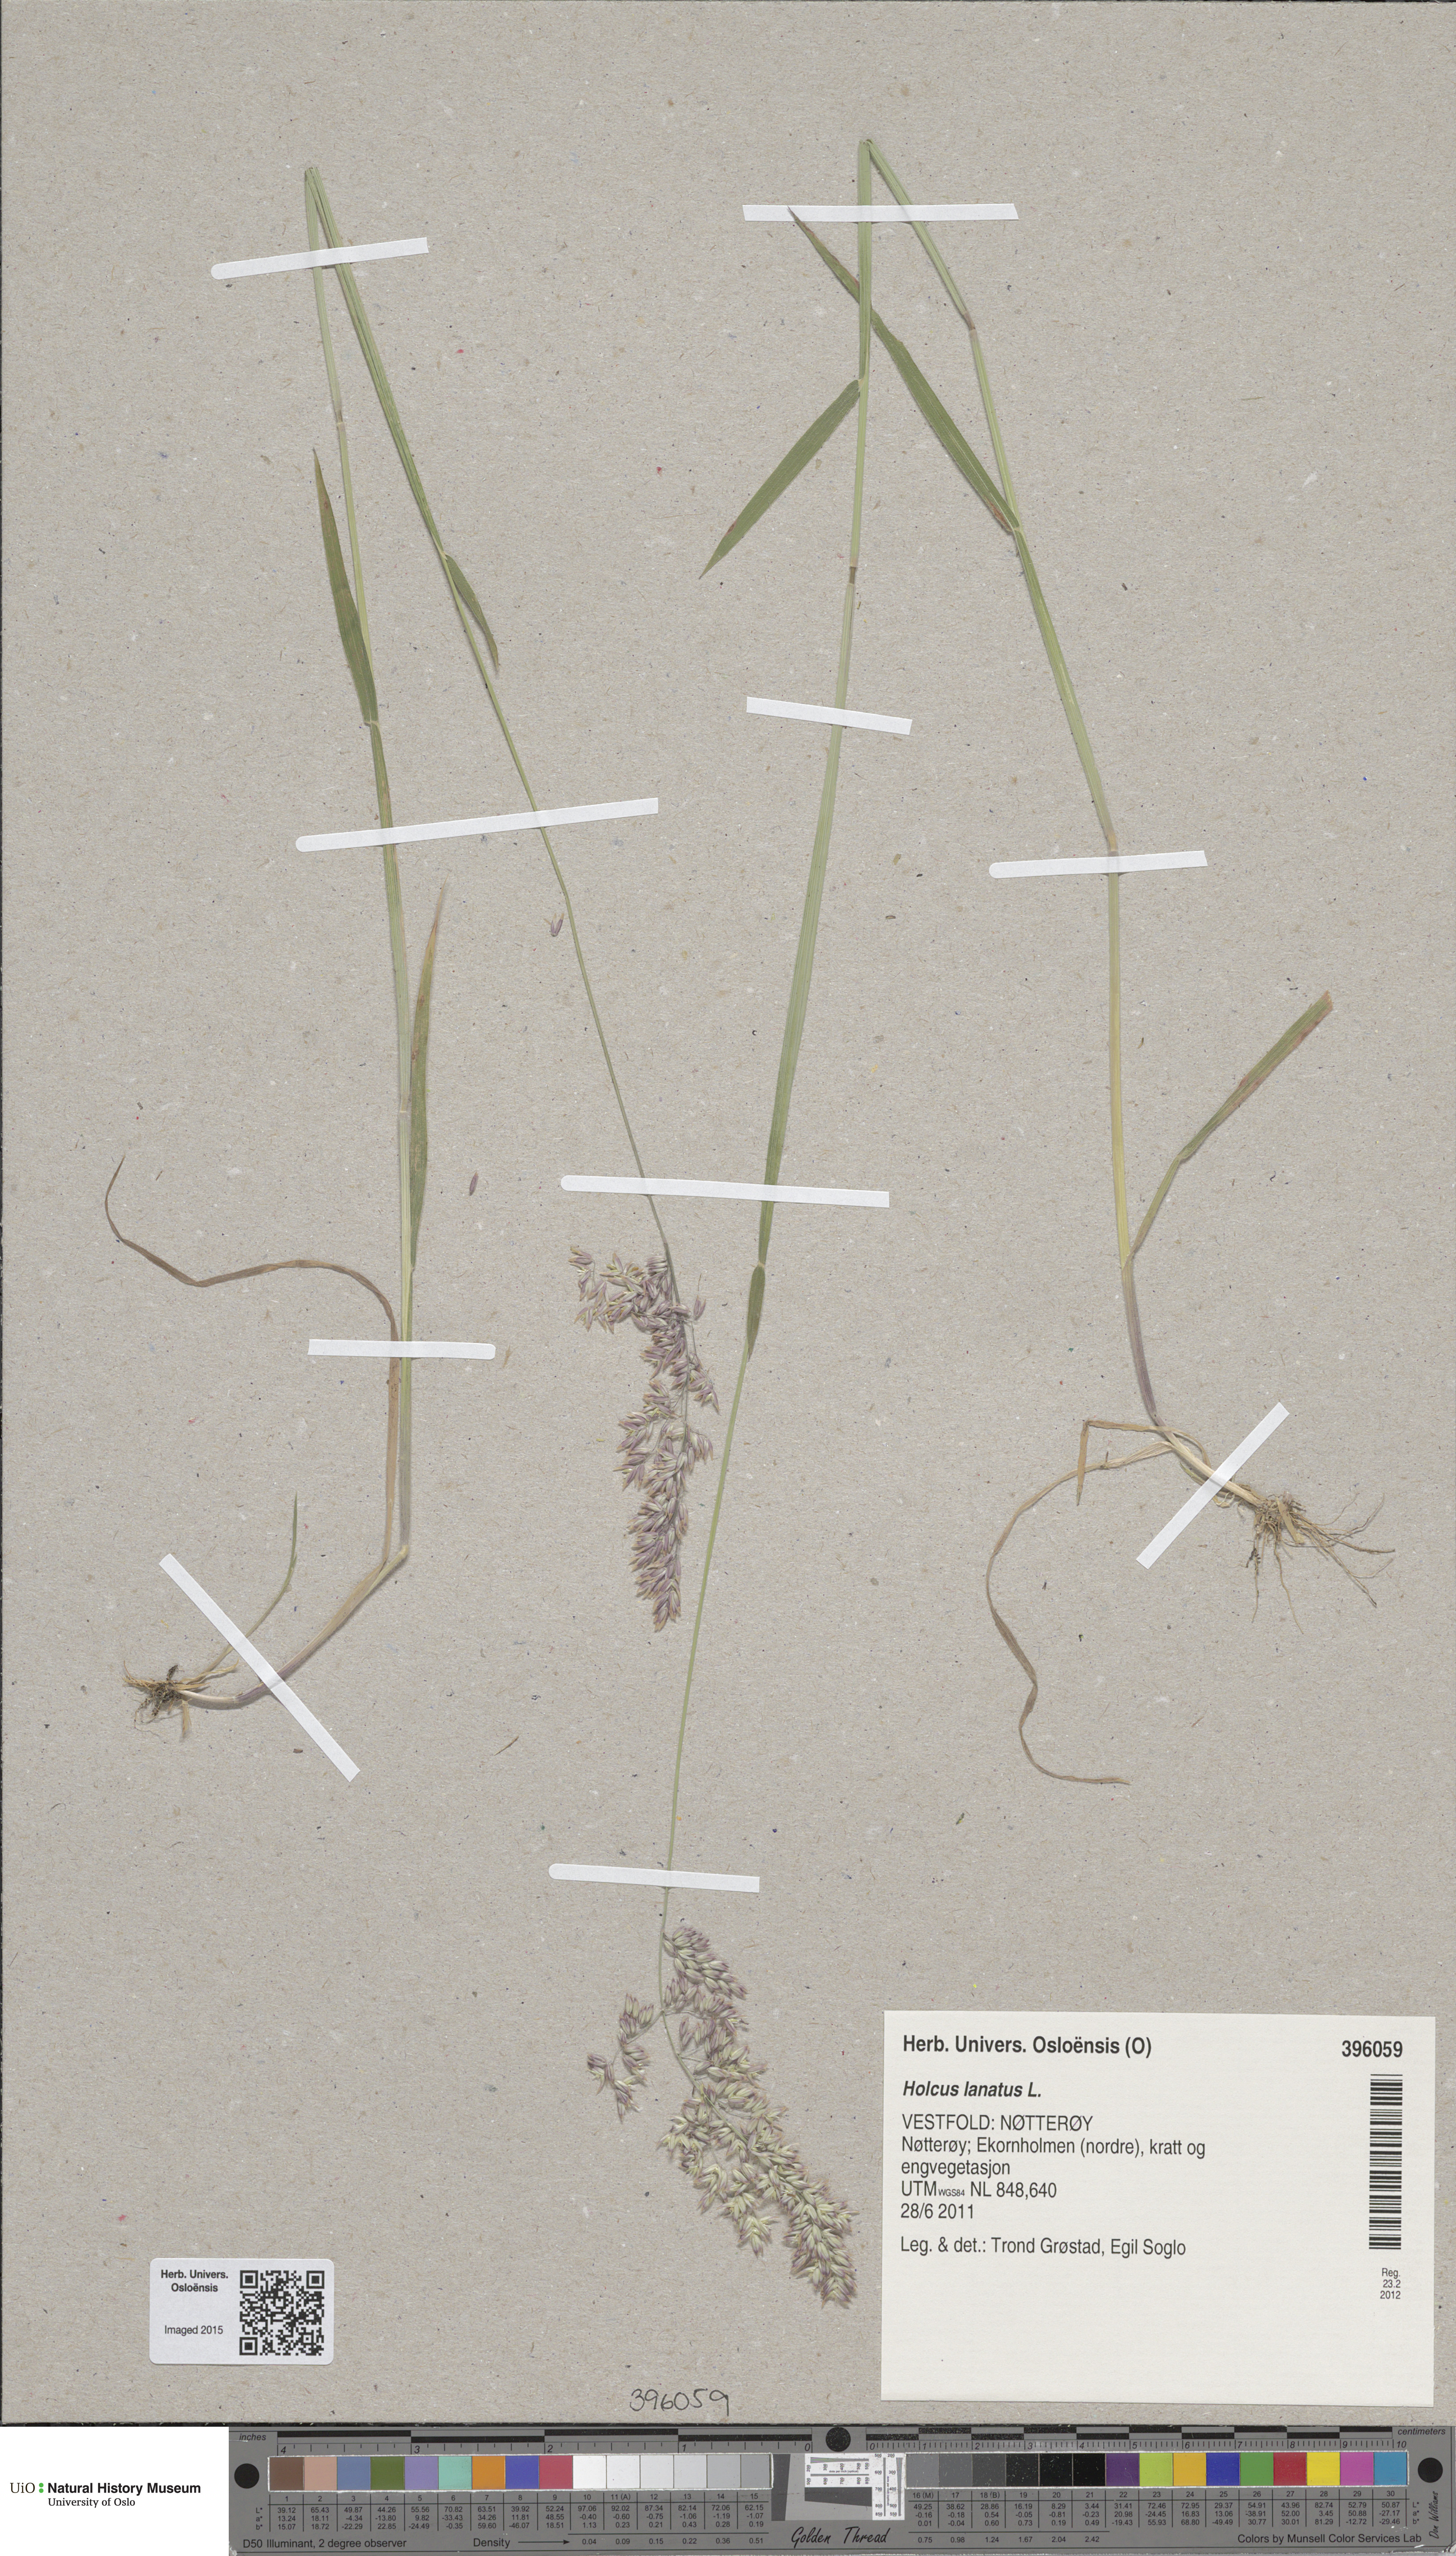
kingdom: Plantae
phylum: Tracheophyta
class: Liliopsida
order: Poales
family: Poaceae
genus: Holcus
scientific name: Holcus lanatus
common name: Yorkshire-fog
